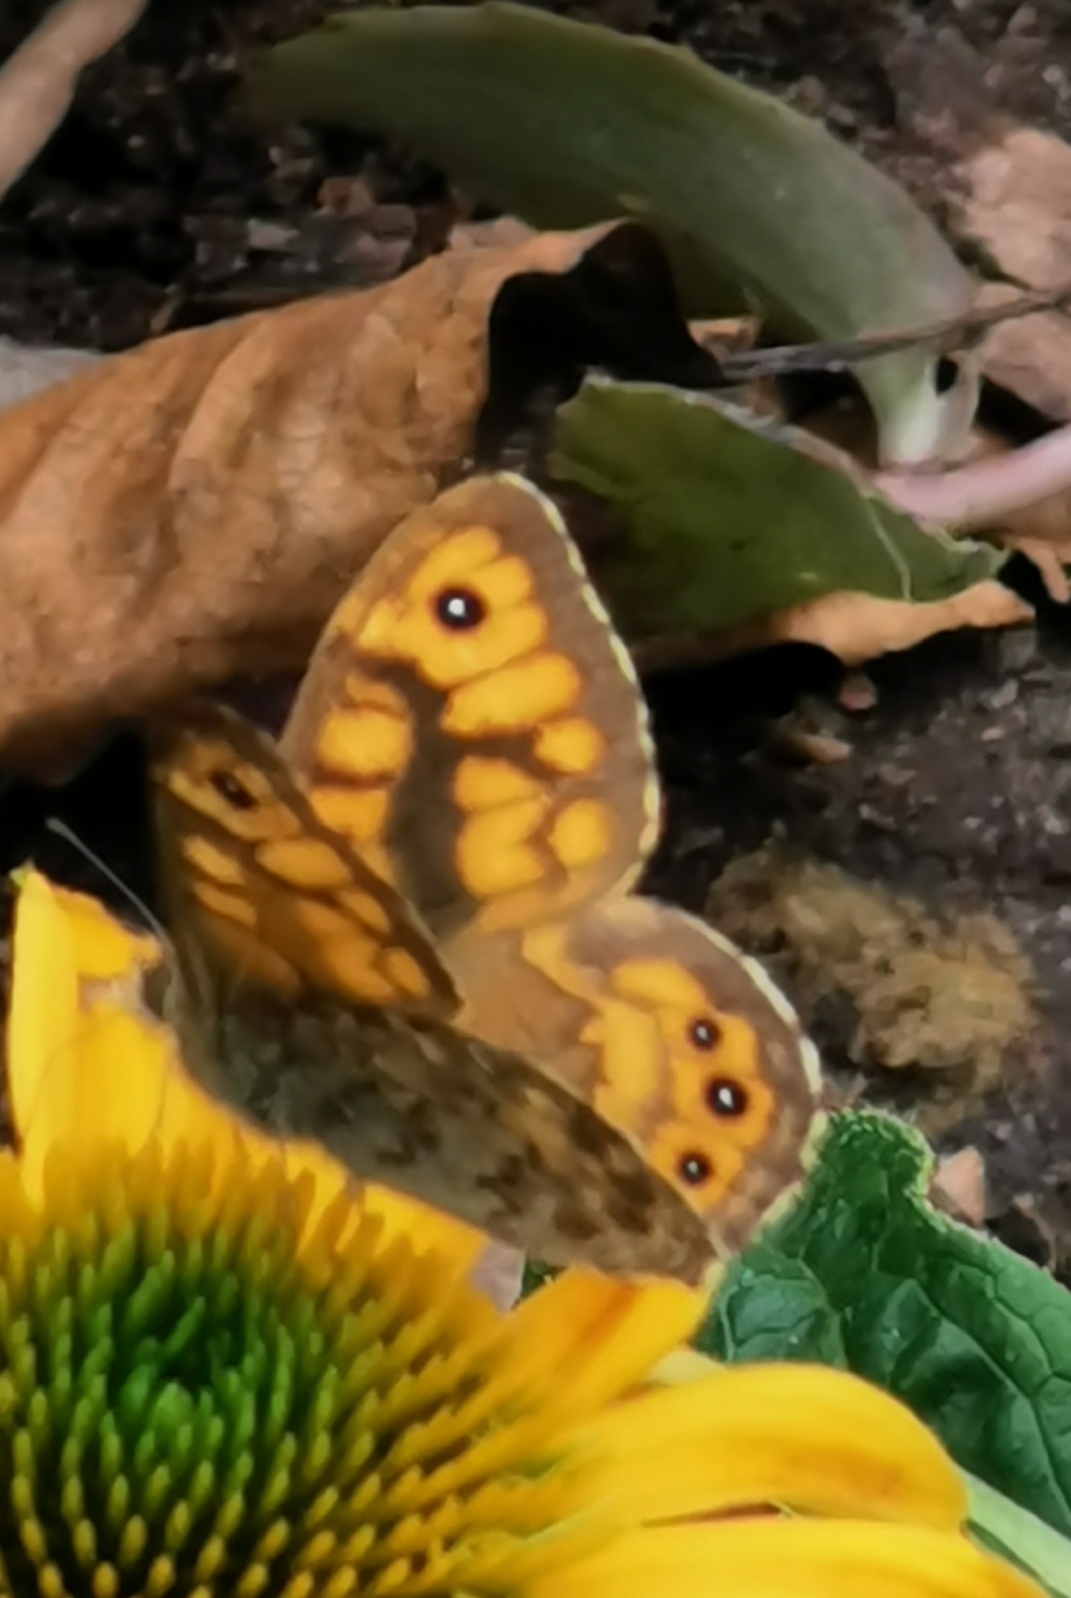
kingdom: Animalia
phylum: Arthropoda
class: Insecta
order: Lepidoptera
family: Nymphalidae
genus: Pararge
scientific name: Pararge Lasiommata megera
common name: Vejrandøje
